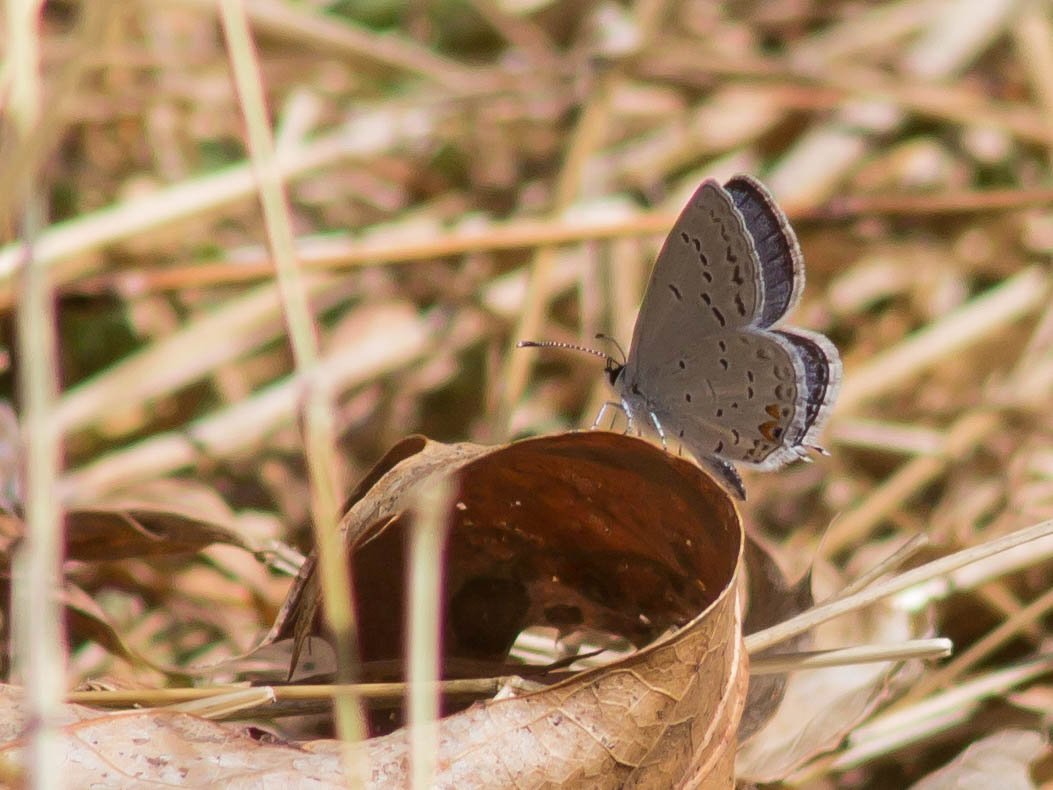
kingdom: Animalia
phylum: Arthropoda
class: Insecta
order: Lepidoptera
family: Lycaenidae
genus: Elkalyce
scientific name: Elkalyce comyntas
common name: Eastern Tailed-Blue
